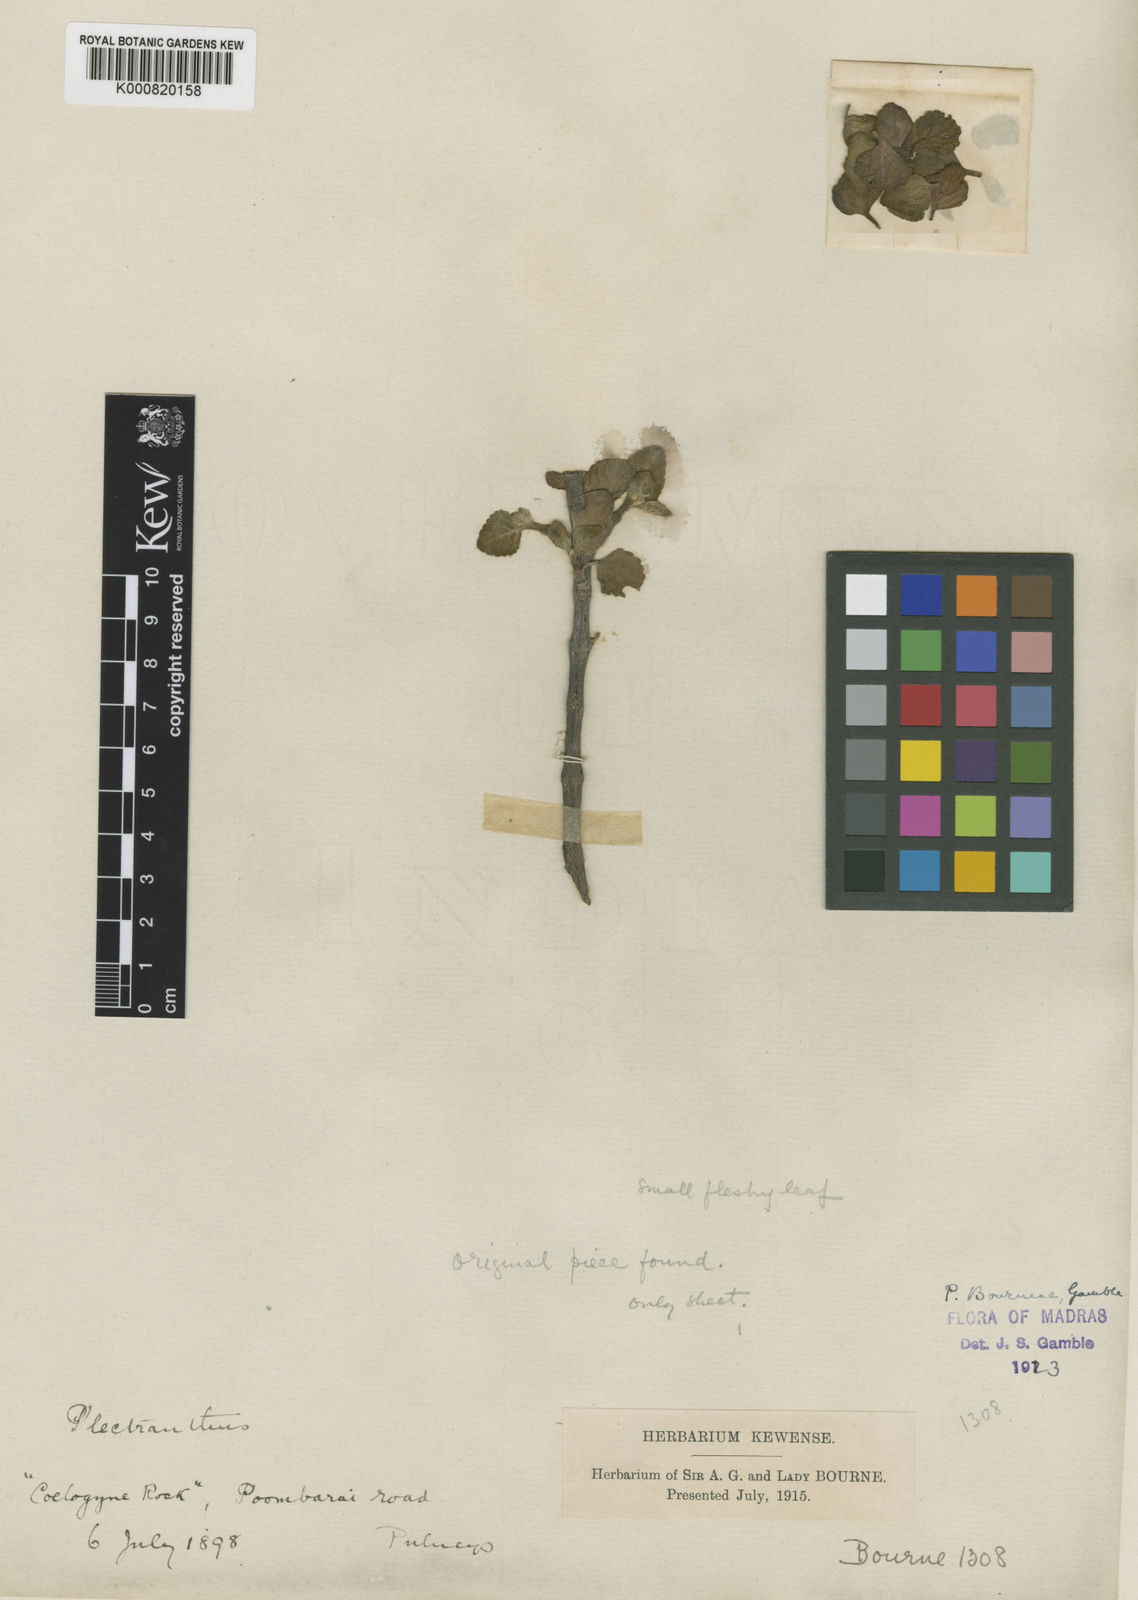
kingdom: Plantae
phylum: Tracheophyta
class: Magnoliopsida
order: Lamiales
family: Lamiaceae
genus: Coleus
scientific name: Coleus bourneae
